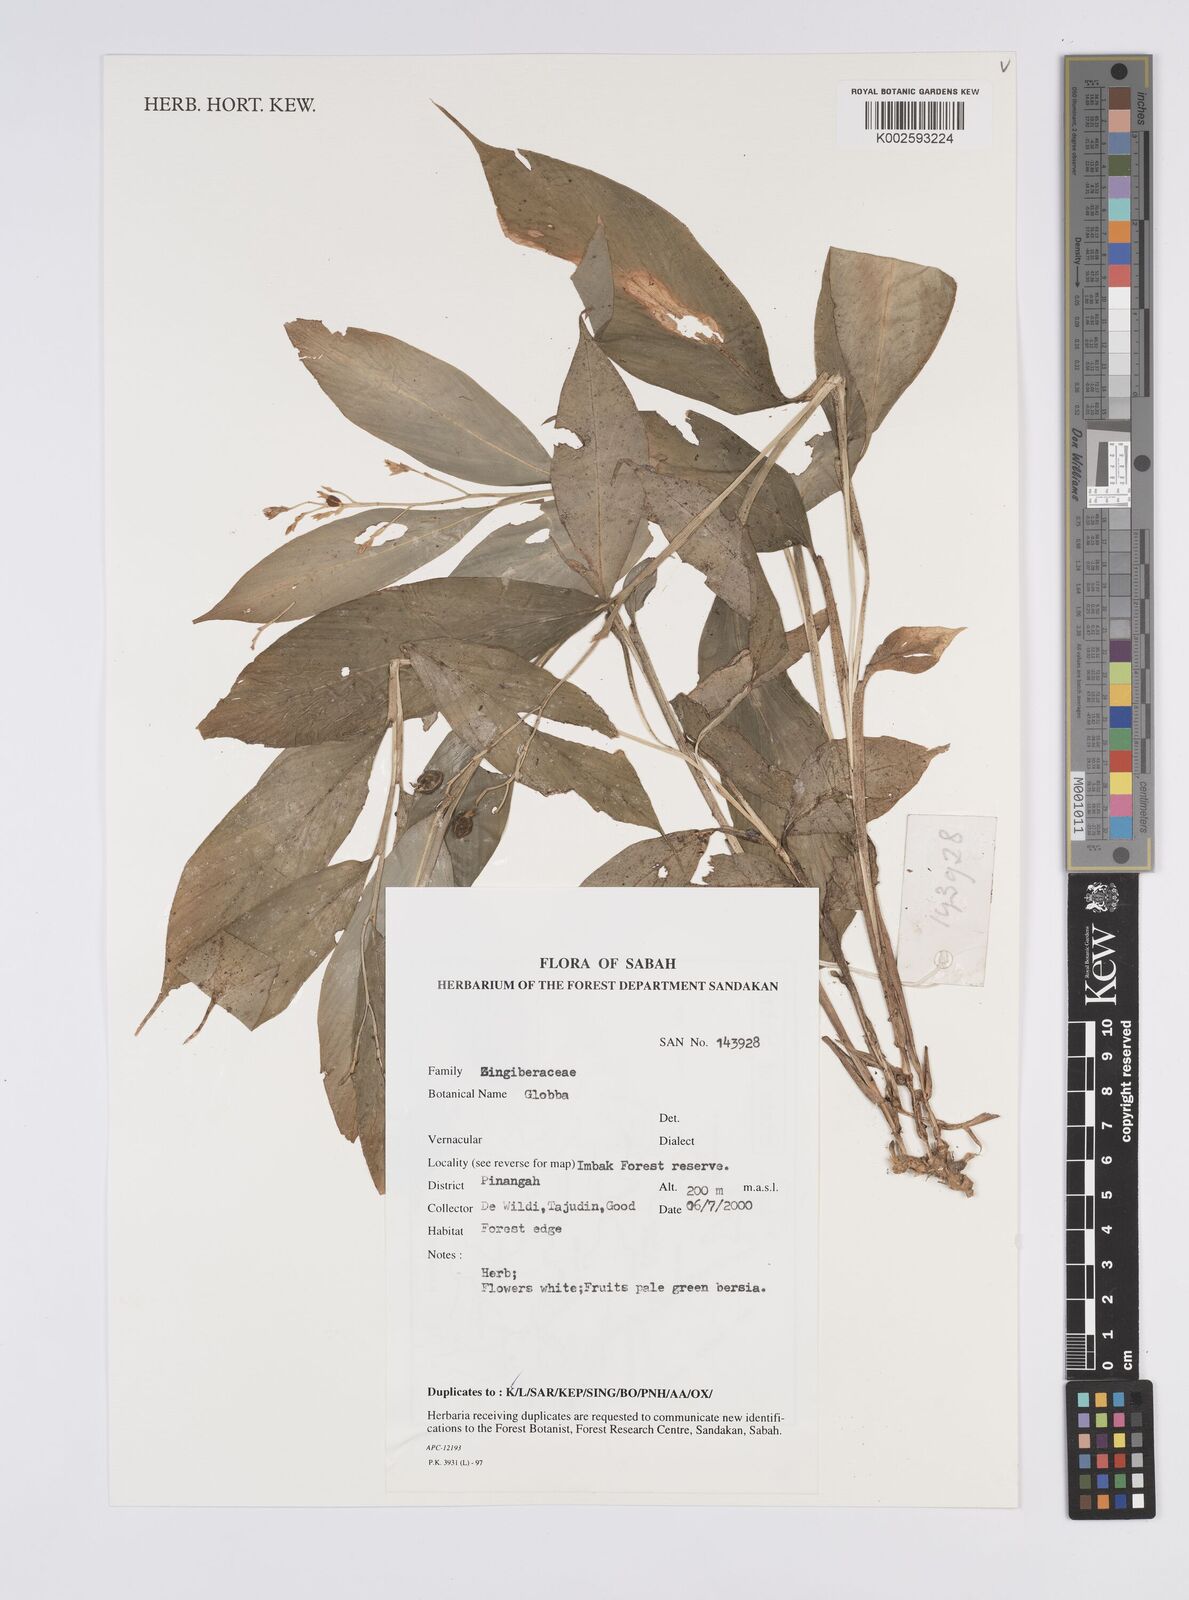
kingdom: Plantae
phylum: Tracheophyta
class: Liliopsida
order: Zingiberales
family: Zingiberaceae
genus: Globba
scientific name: Globba
